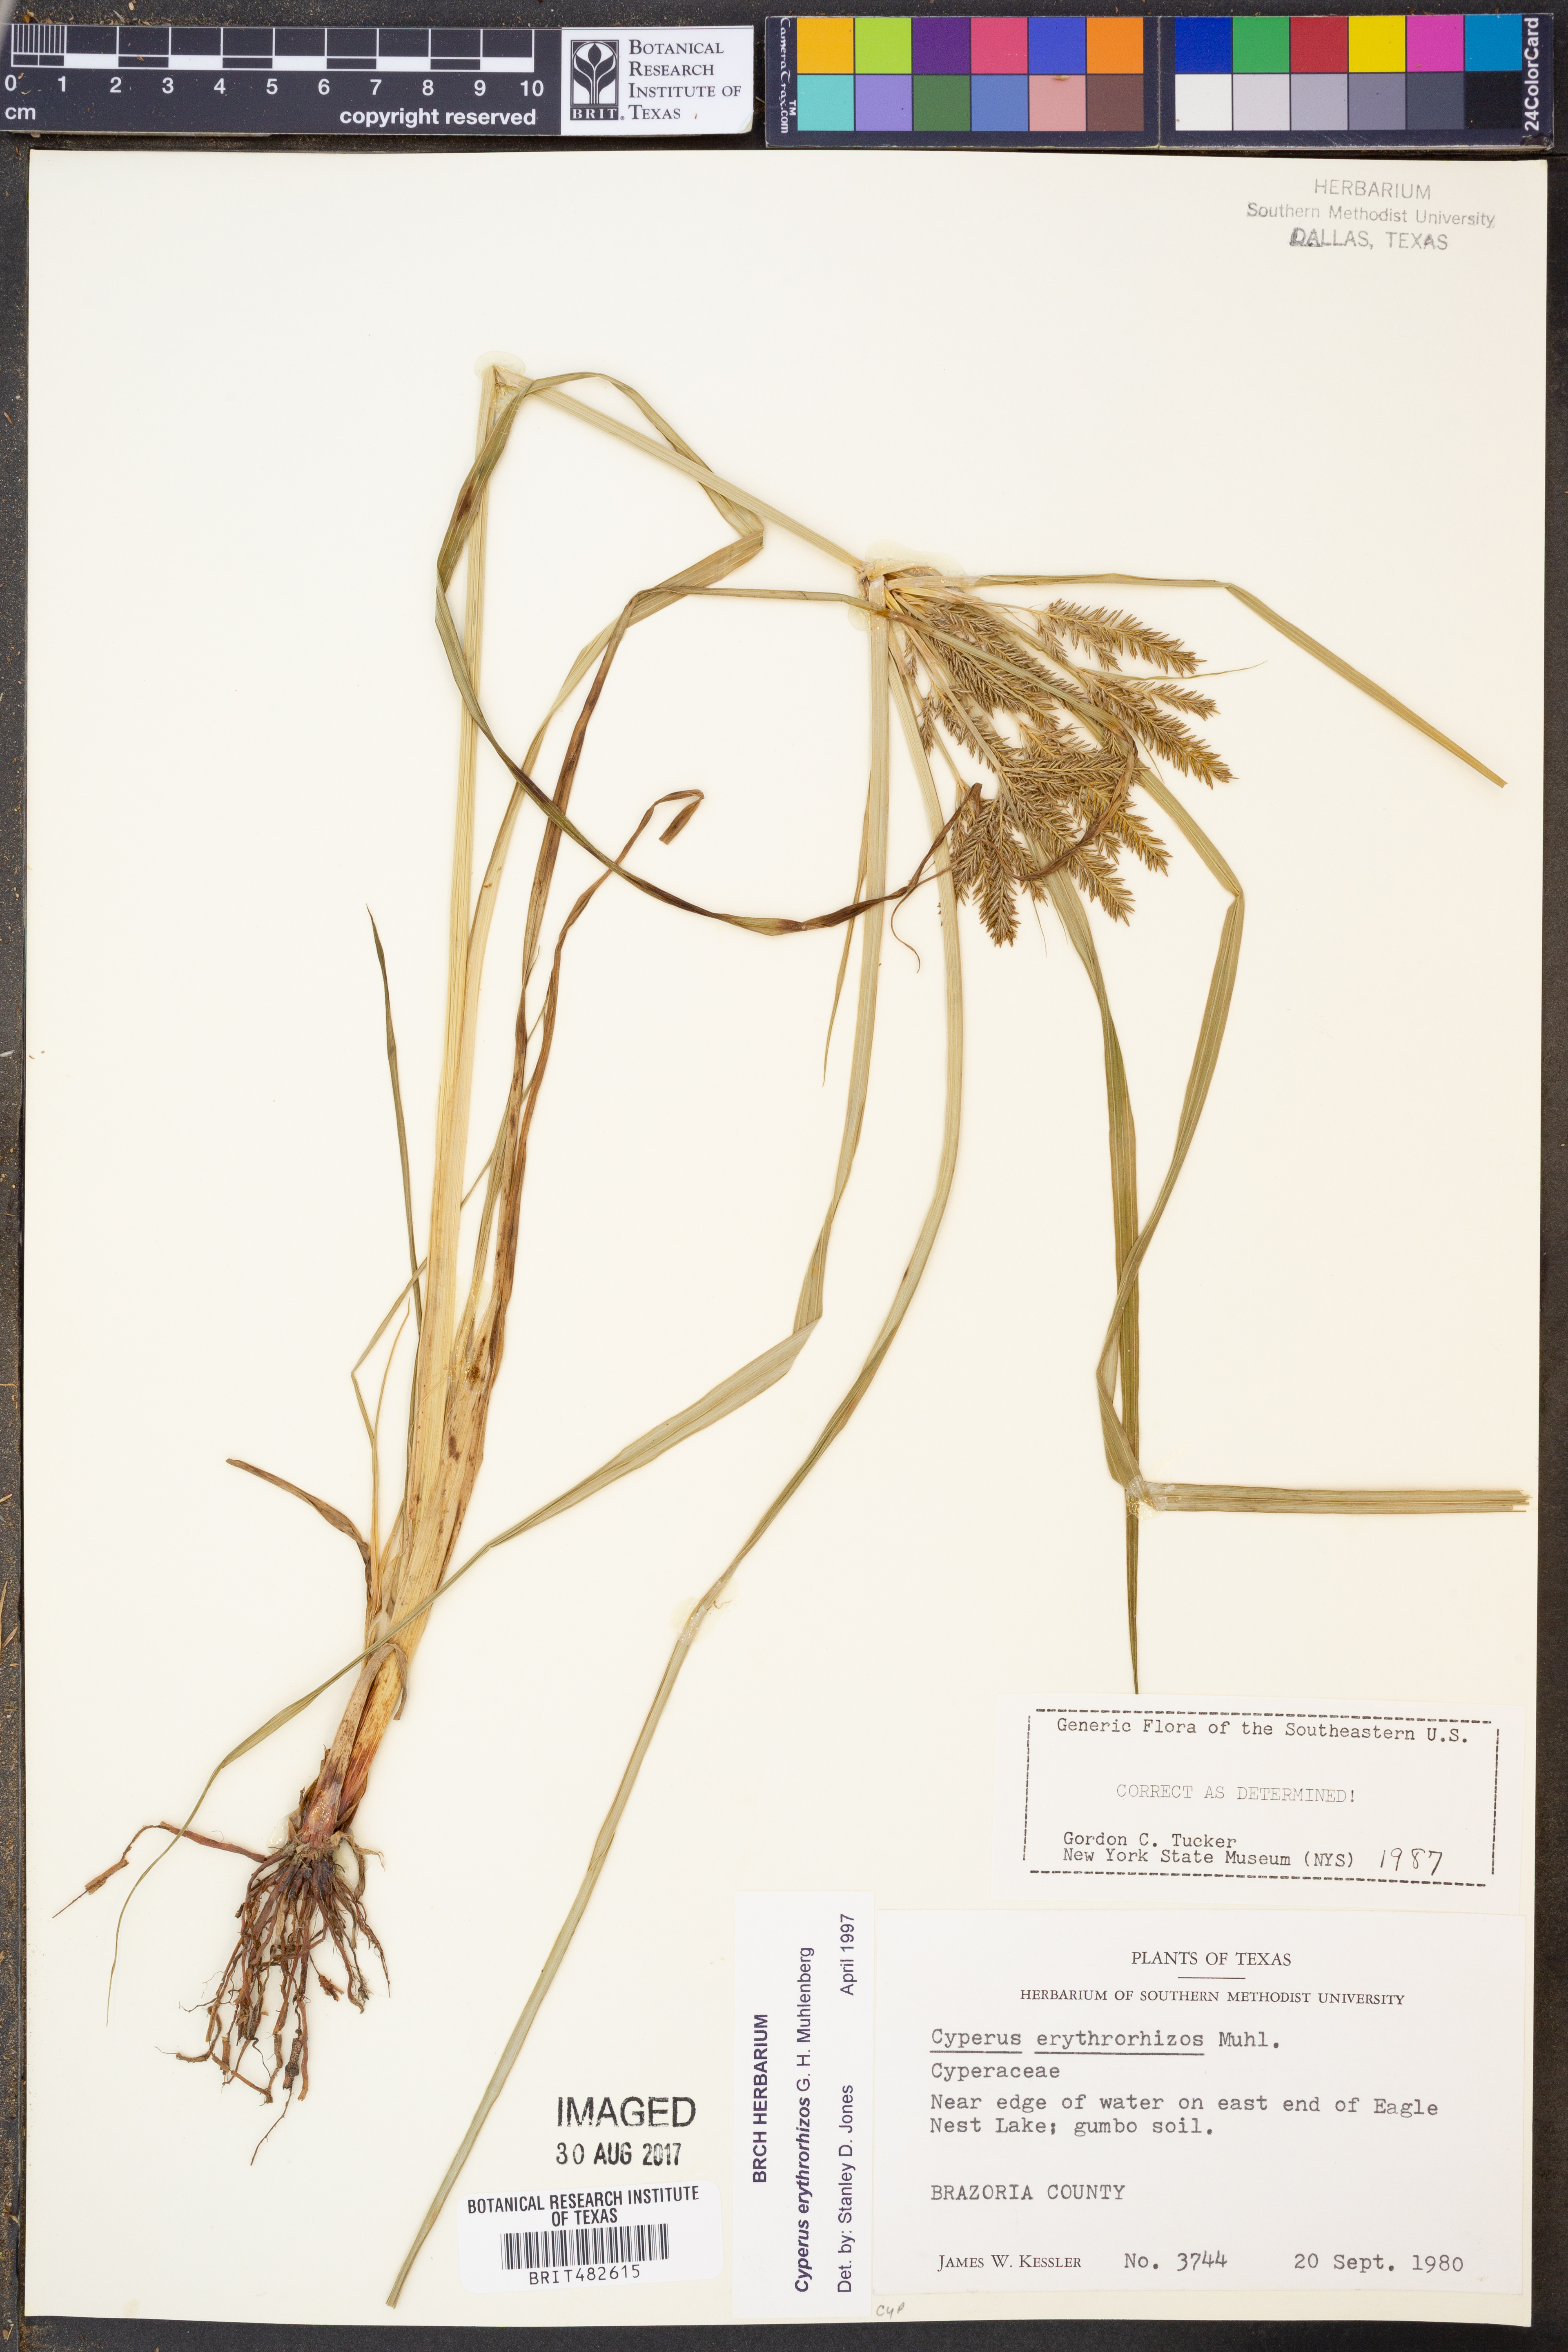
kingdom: Plantae
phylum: Tracheophyta
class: Liliopsida
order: Poales
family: Cyperaceae
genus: Cyperus
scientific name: Cyperus erythrorhizos
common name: Red-root flat sedge
